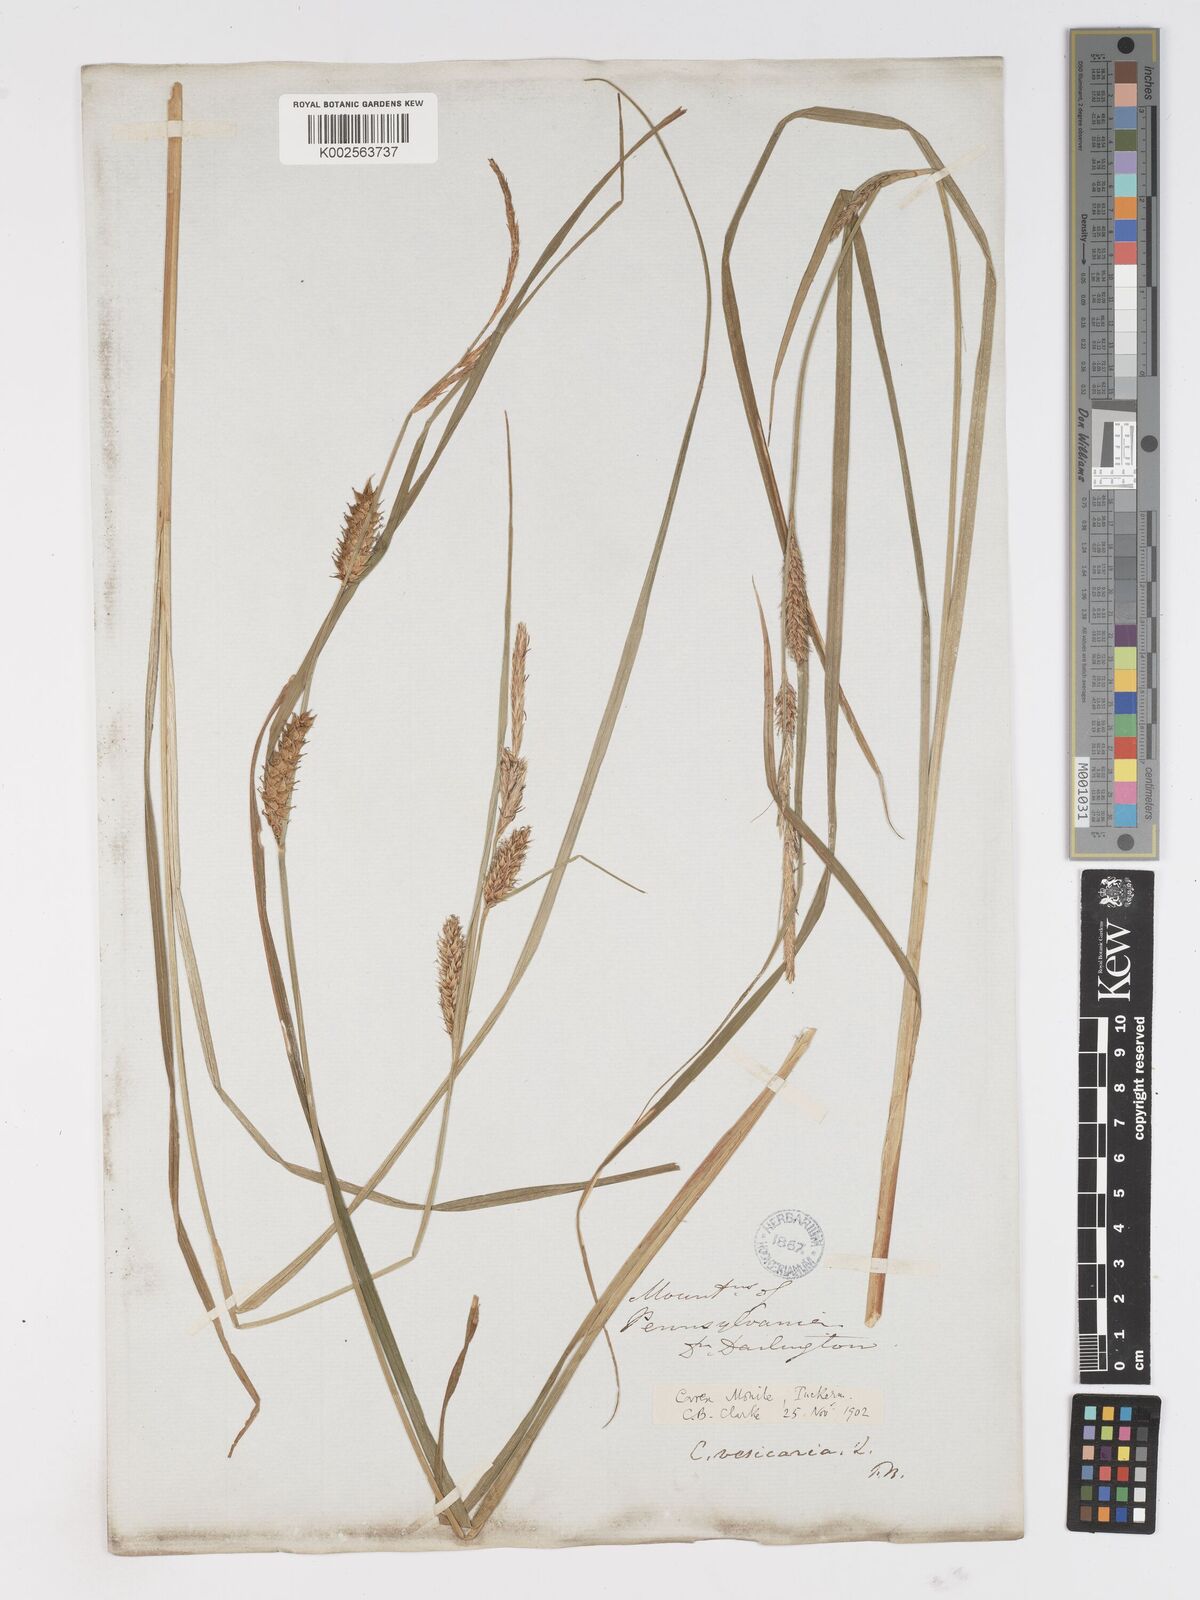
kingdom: Plantae
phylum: Tracheophyta
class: Liliopsida
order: Poales
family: Cyperaceae
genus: Carex
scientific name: Carex vesicaria
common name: Bladder-sedge
